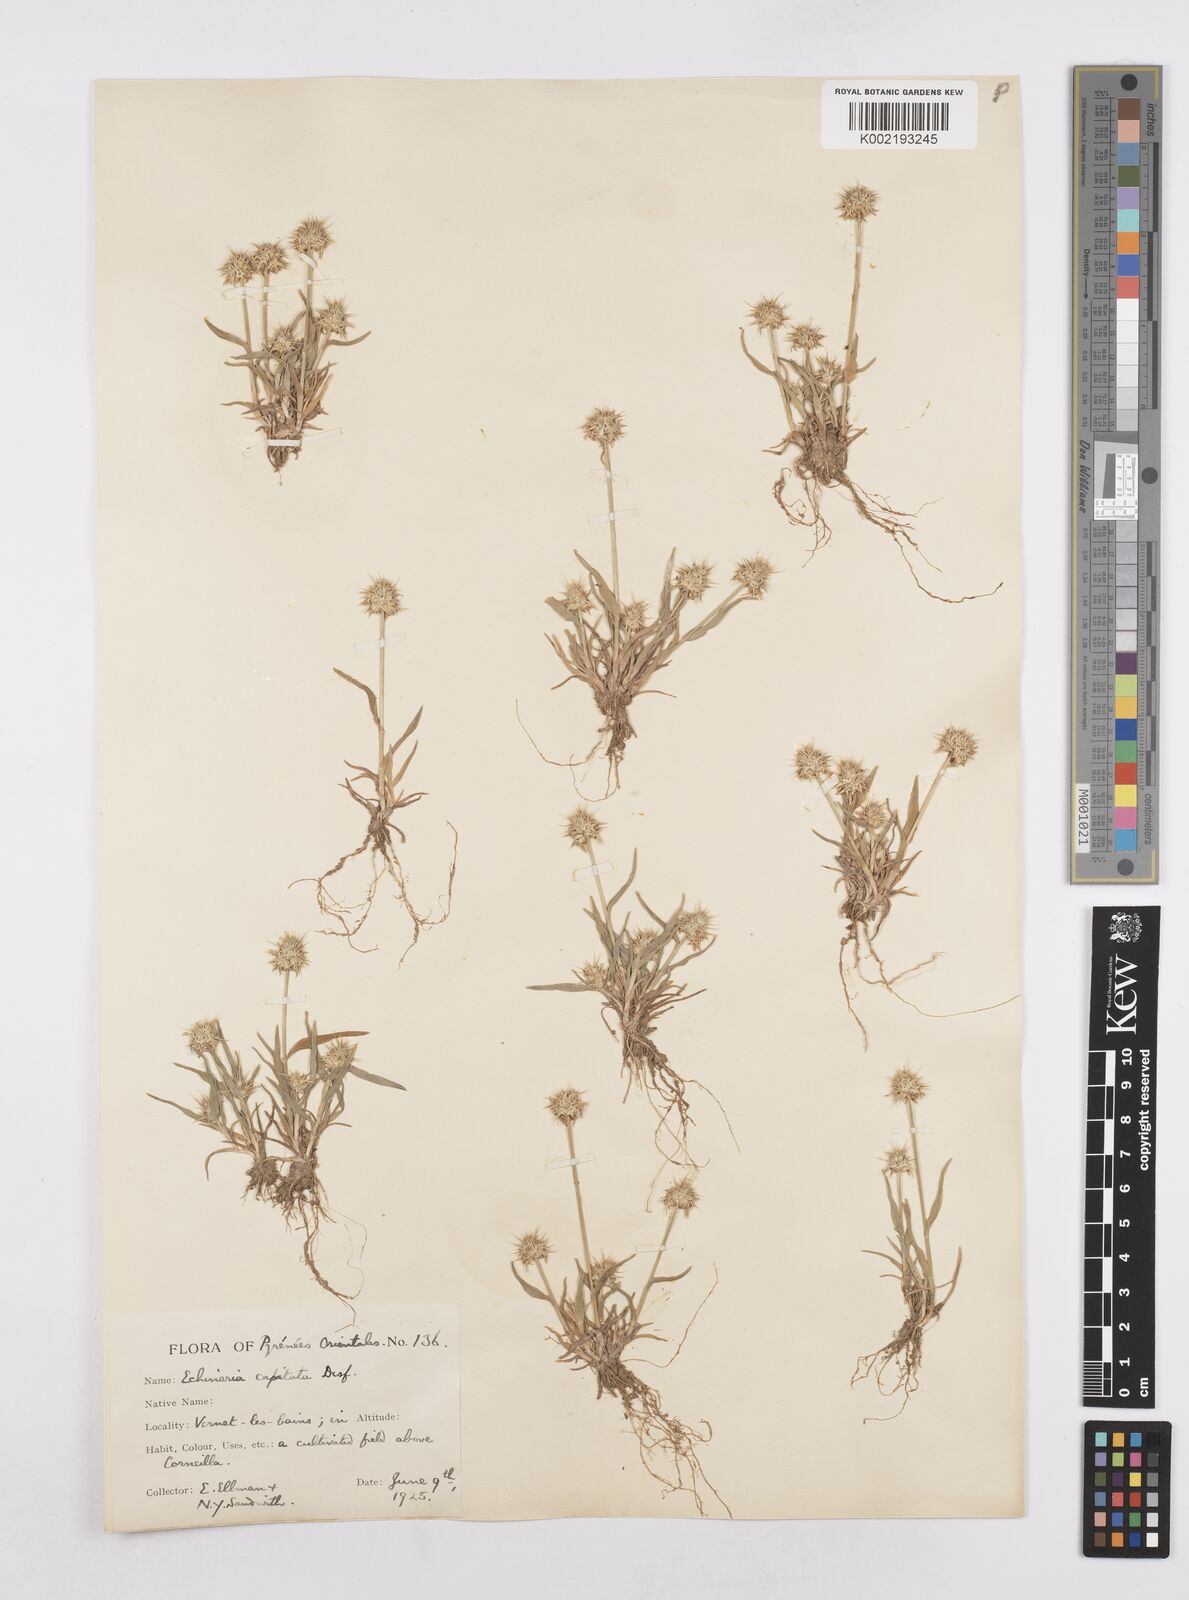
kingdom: Plantae
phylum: Tracheophyta
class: Liliopsida
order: Poales
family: Poaceae
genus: Echinaria
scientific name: Echinaria capitata
